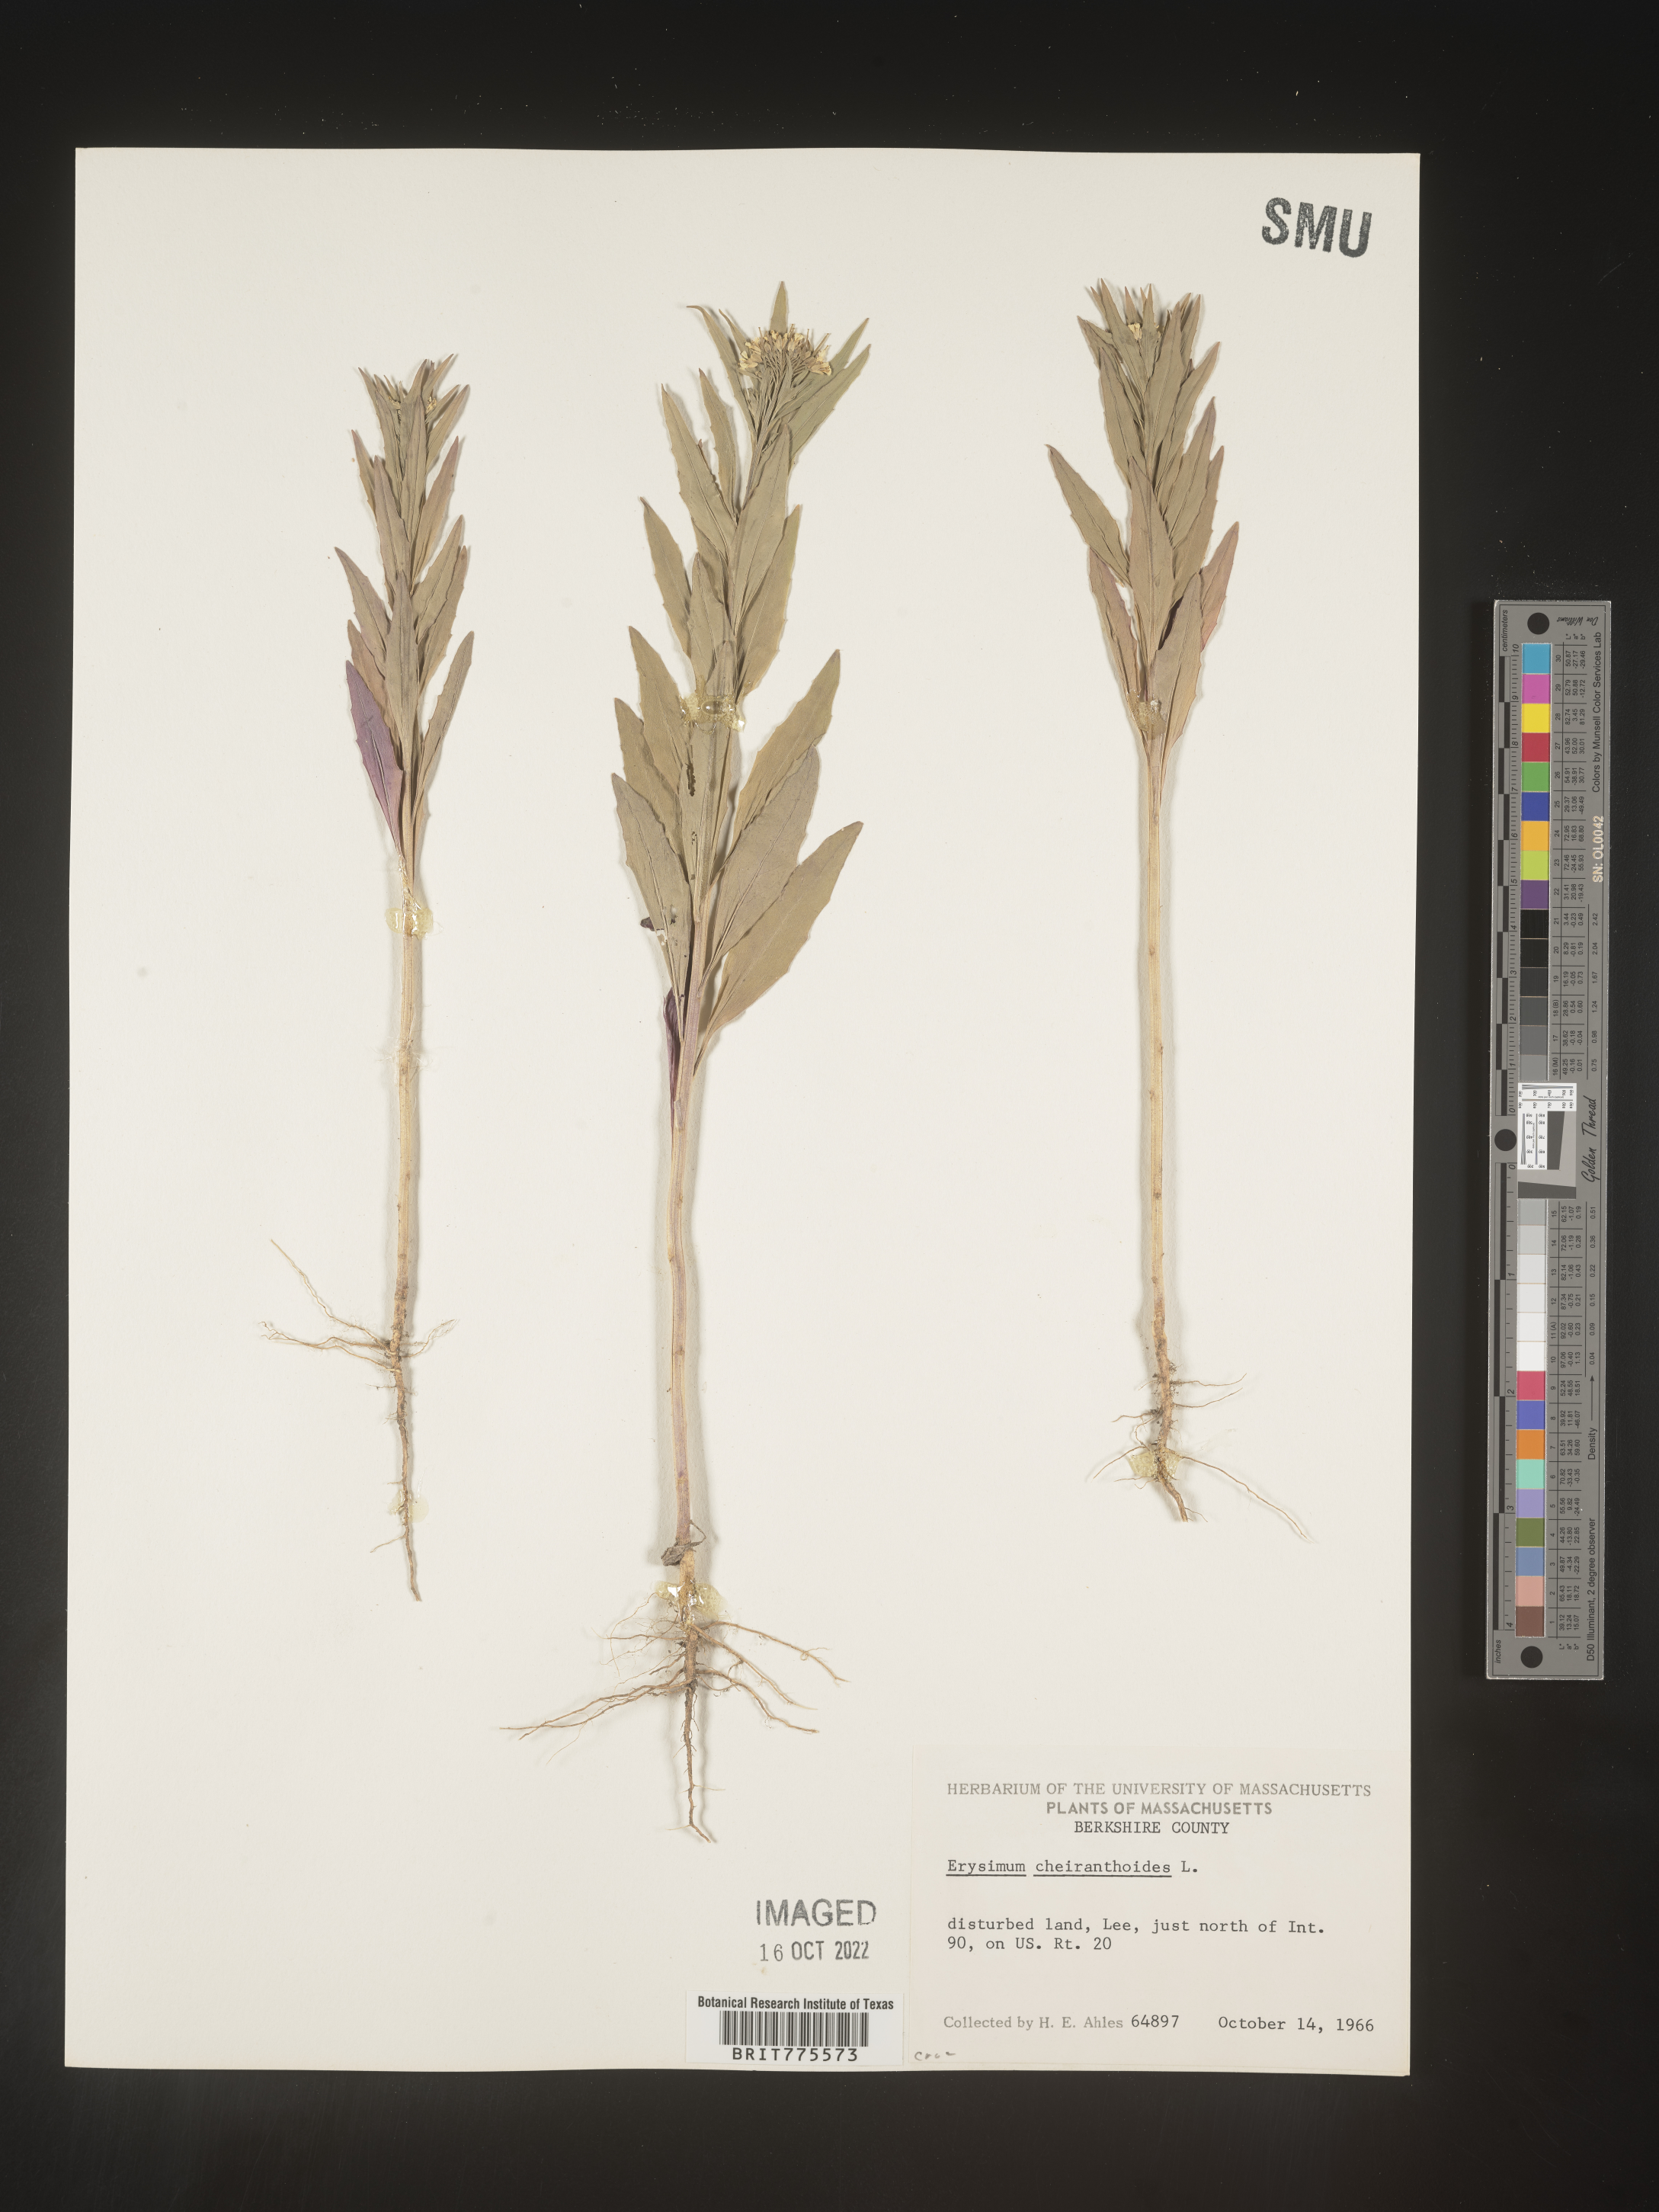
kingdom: Plantae
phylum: Tracheophyta
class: Magnoliopsida
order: Brassicales
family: Brassicaceae
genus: Erysimum
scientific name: Erysimum cheiranthoides
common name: Treacle mustard
